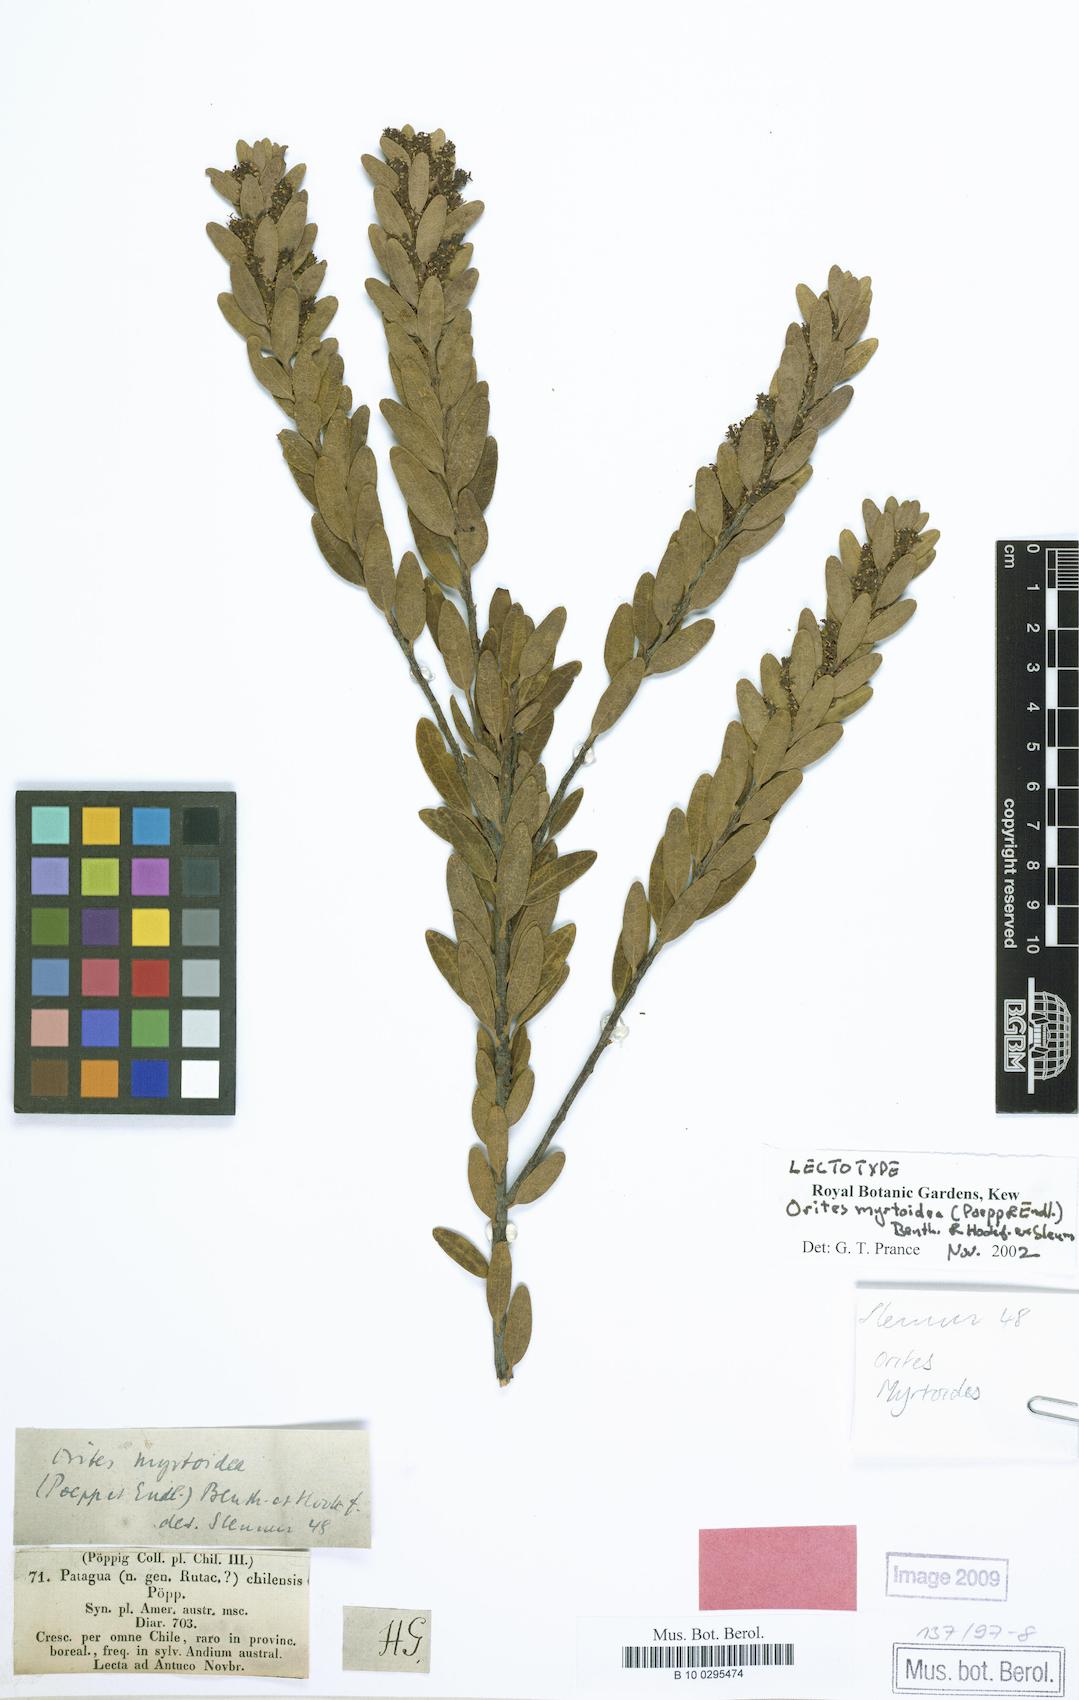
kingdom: Plantae
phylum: Tracheophyta
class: Magnoliopsida
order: Proteales
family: Proteaceae
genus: Orites
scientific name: Orites myrtoideus
